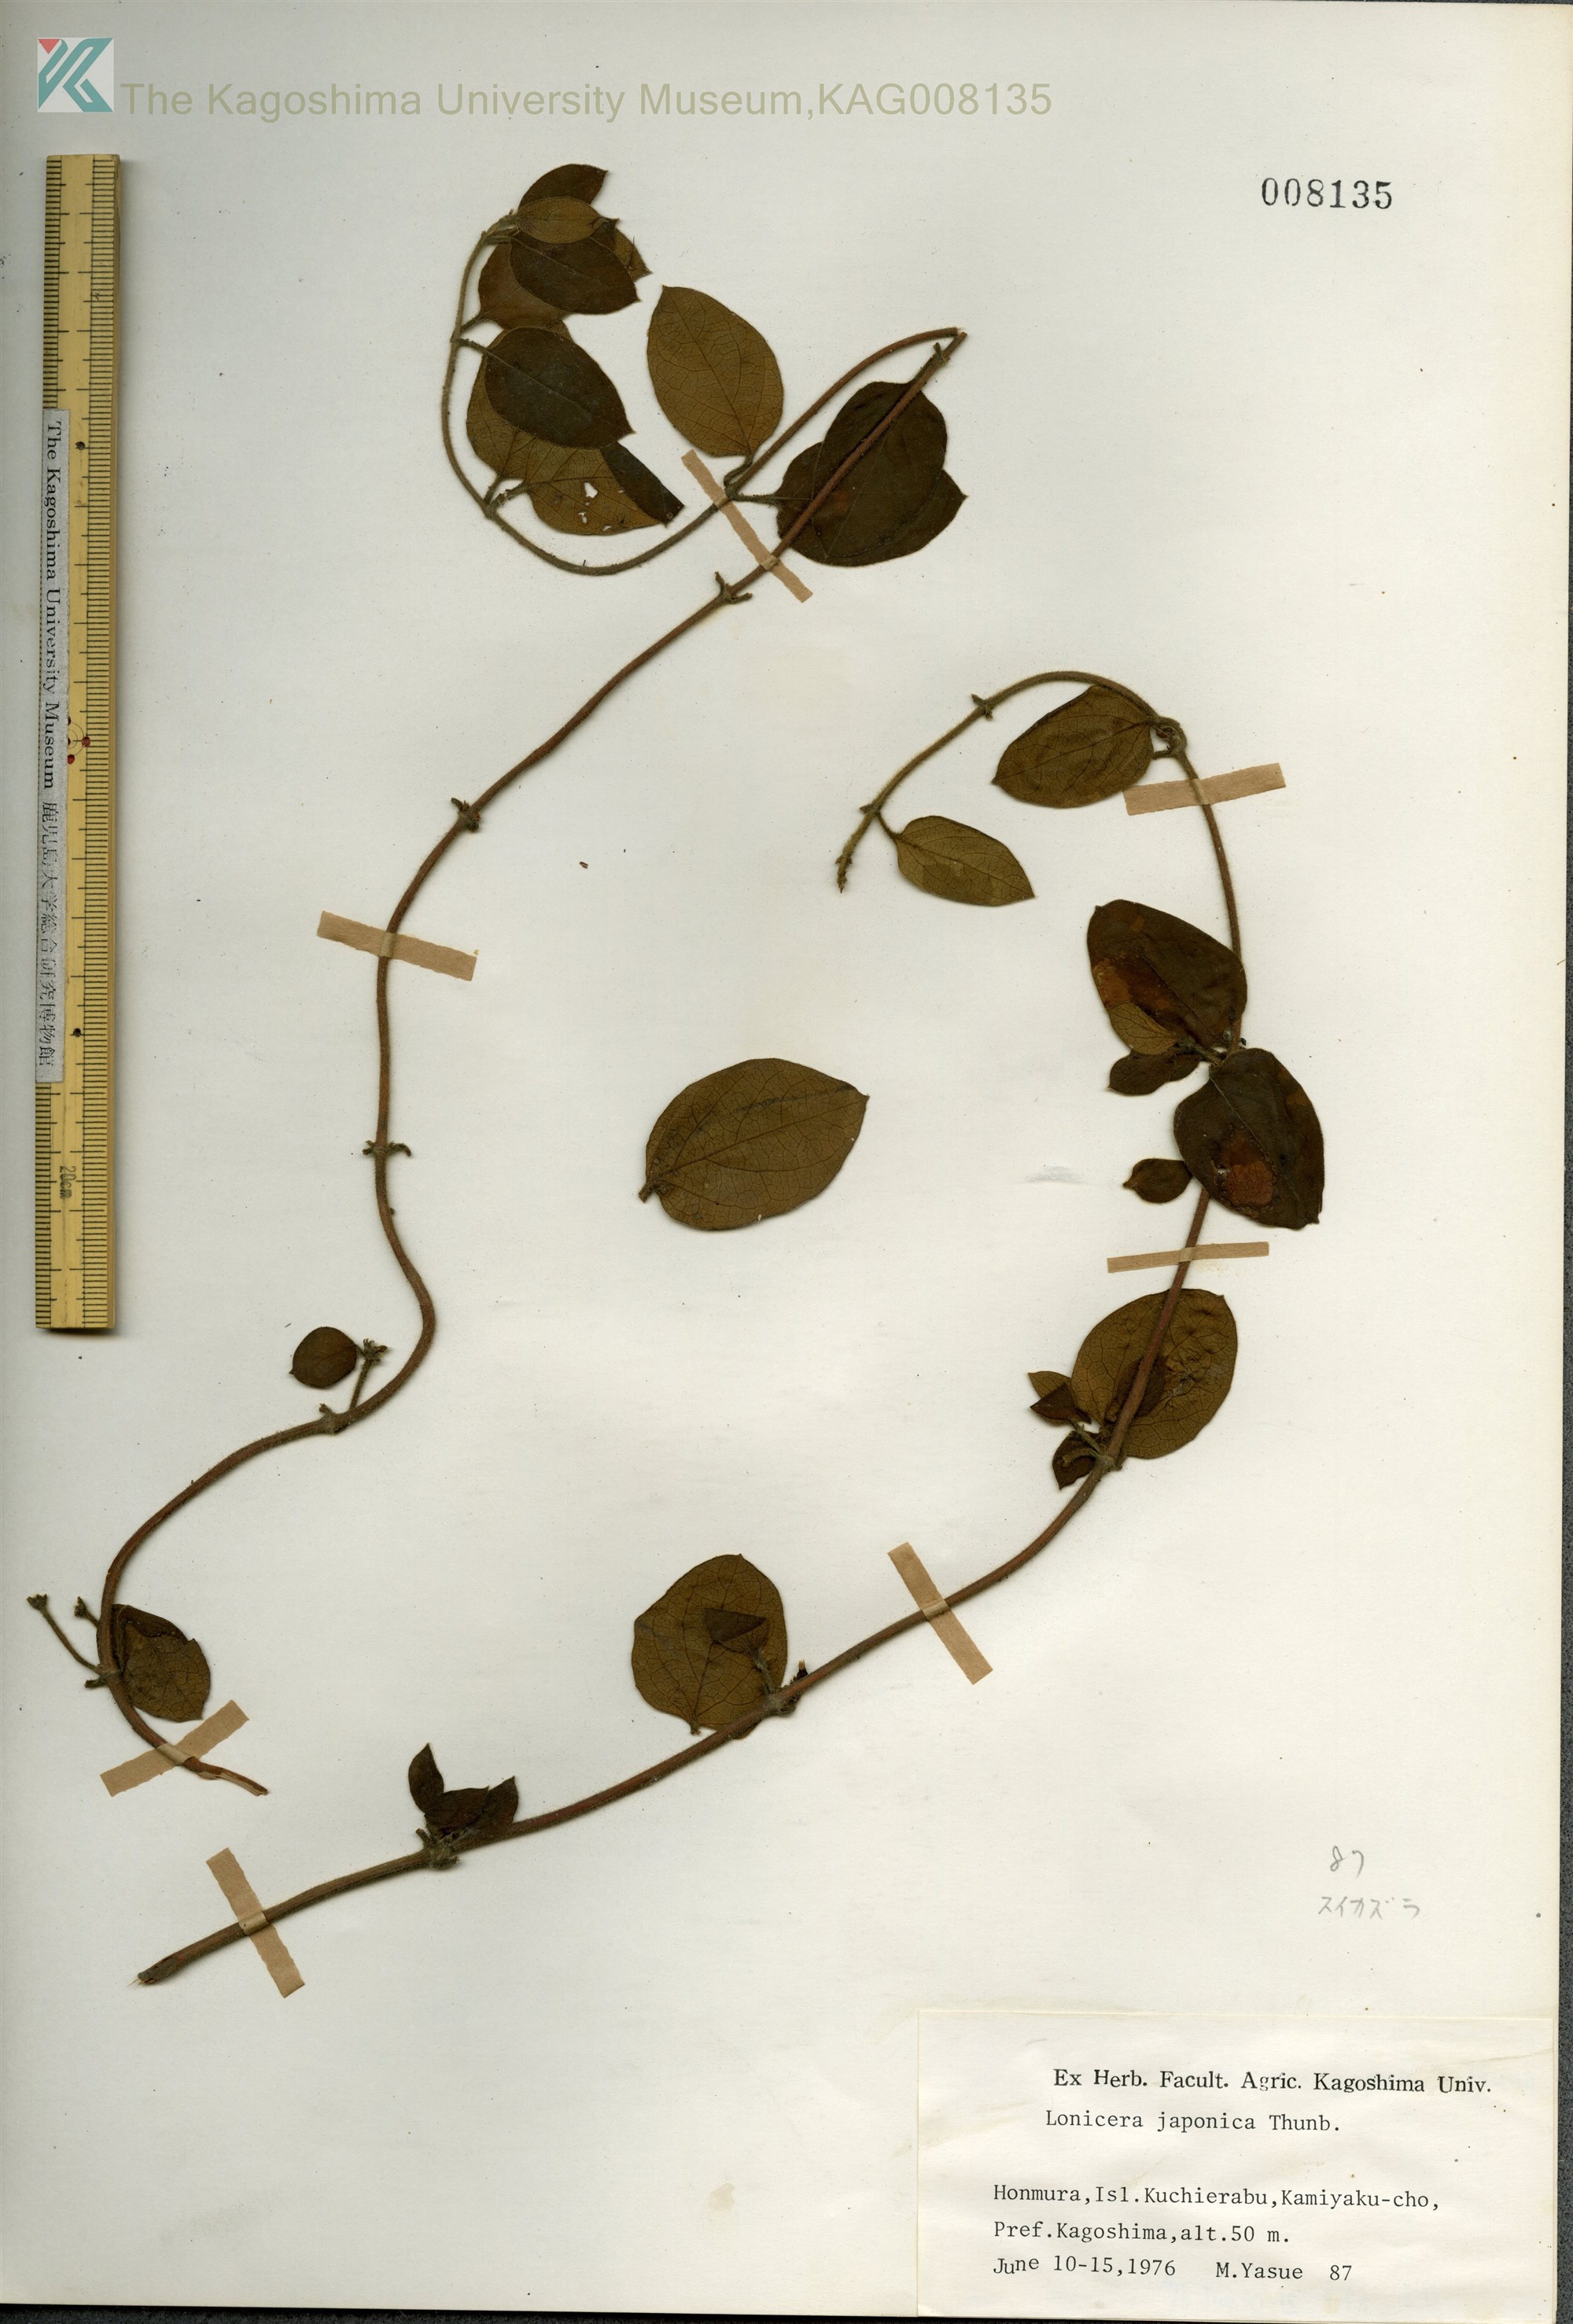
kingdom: Plantae
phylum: Tracheophyta
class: Magnoliopsida
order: Dipsacales
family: Caprifoliaceae
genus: Lonicera
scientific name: Lonicera japonica
